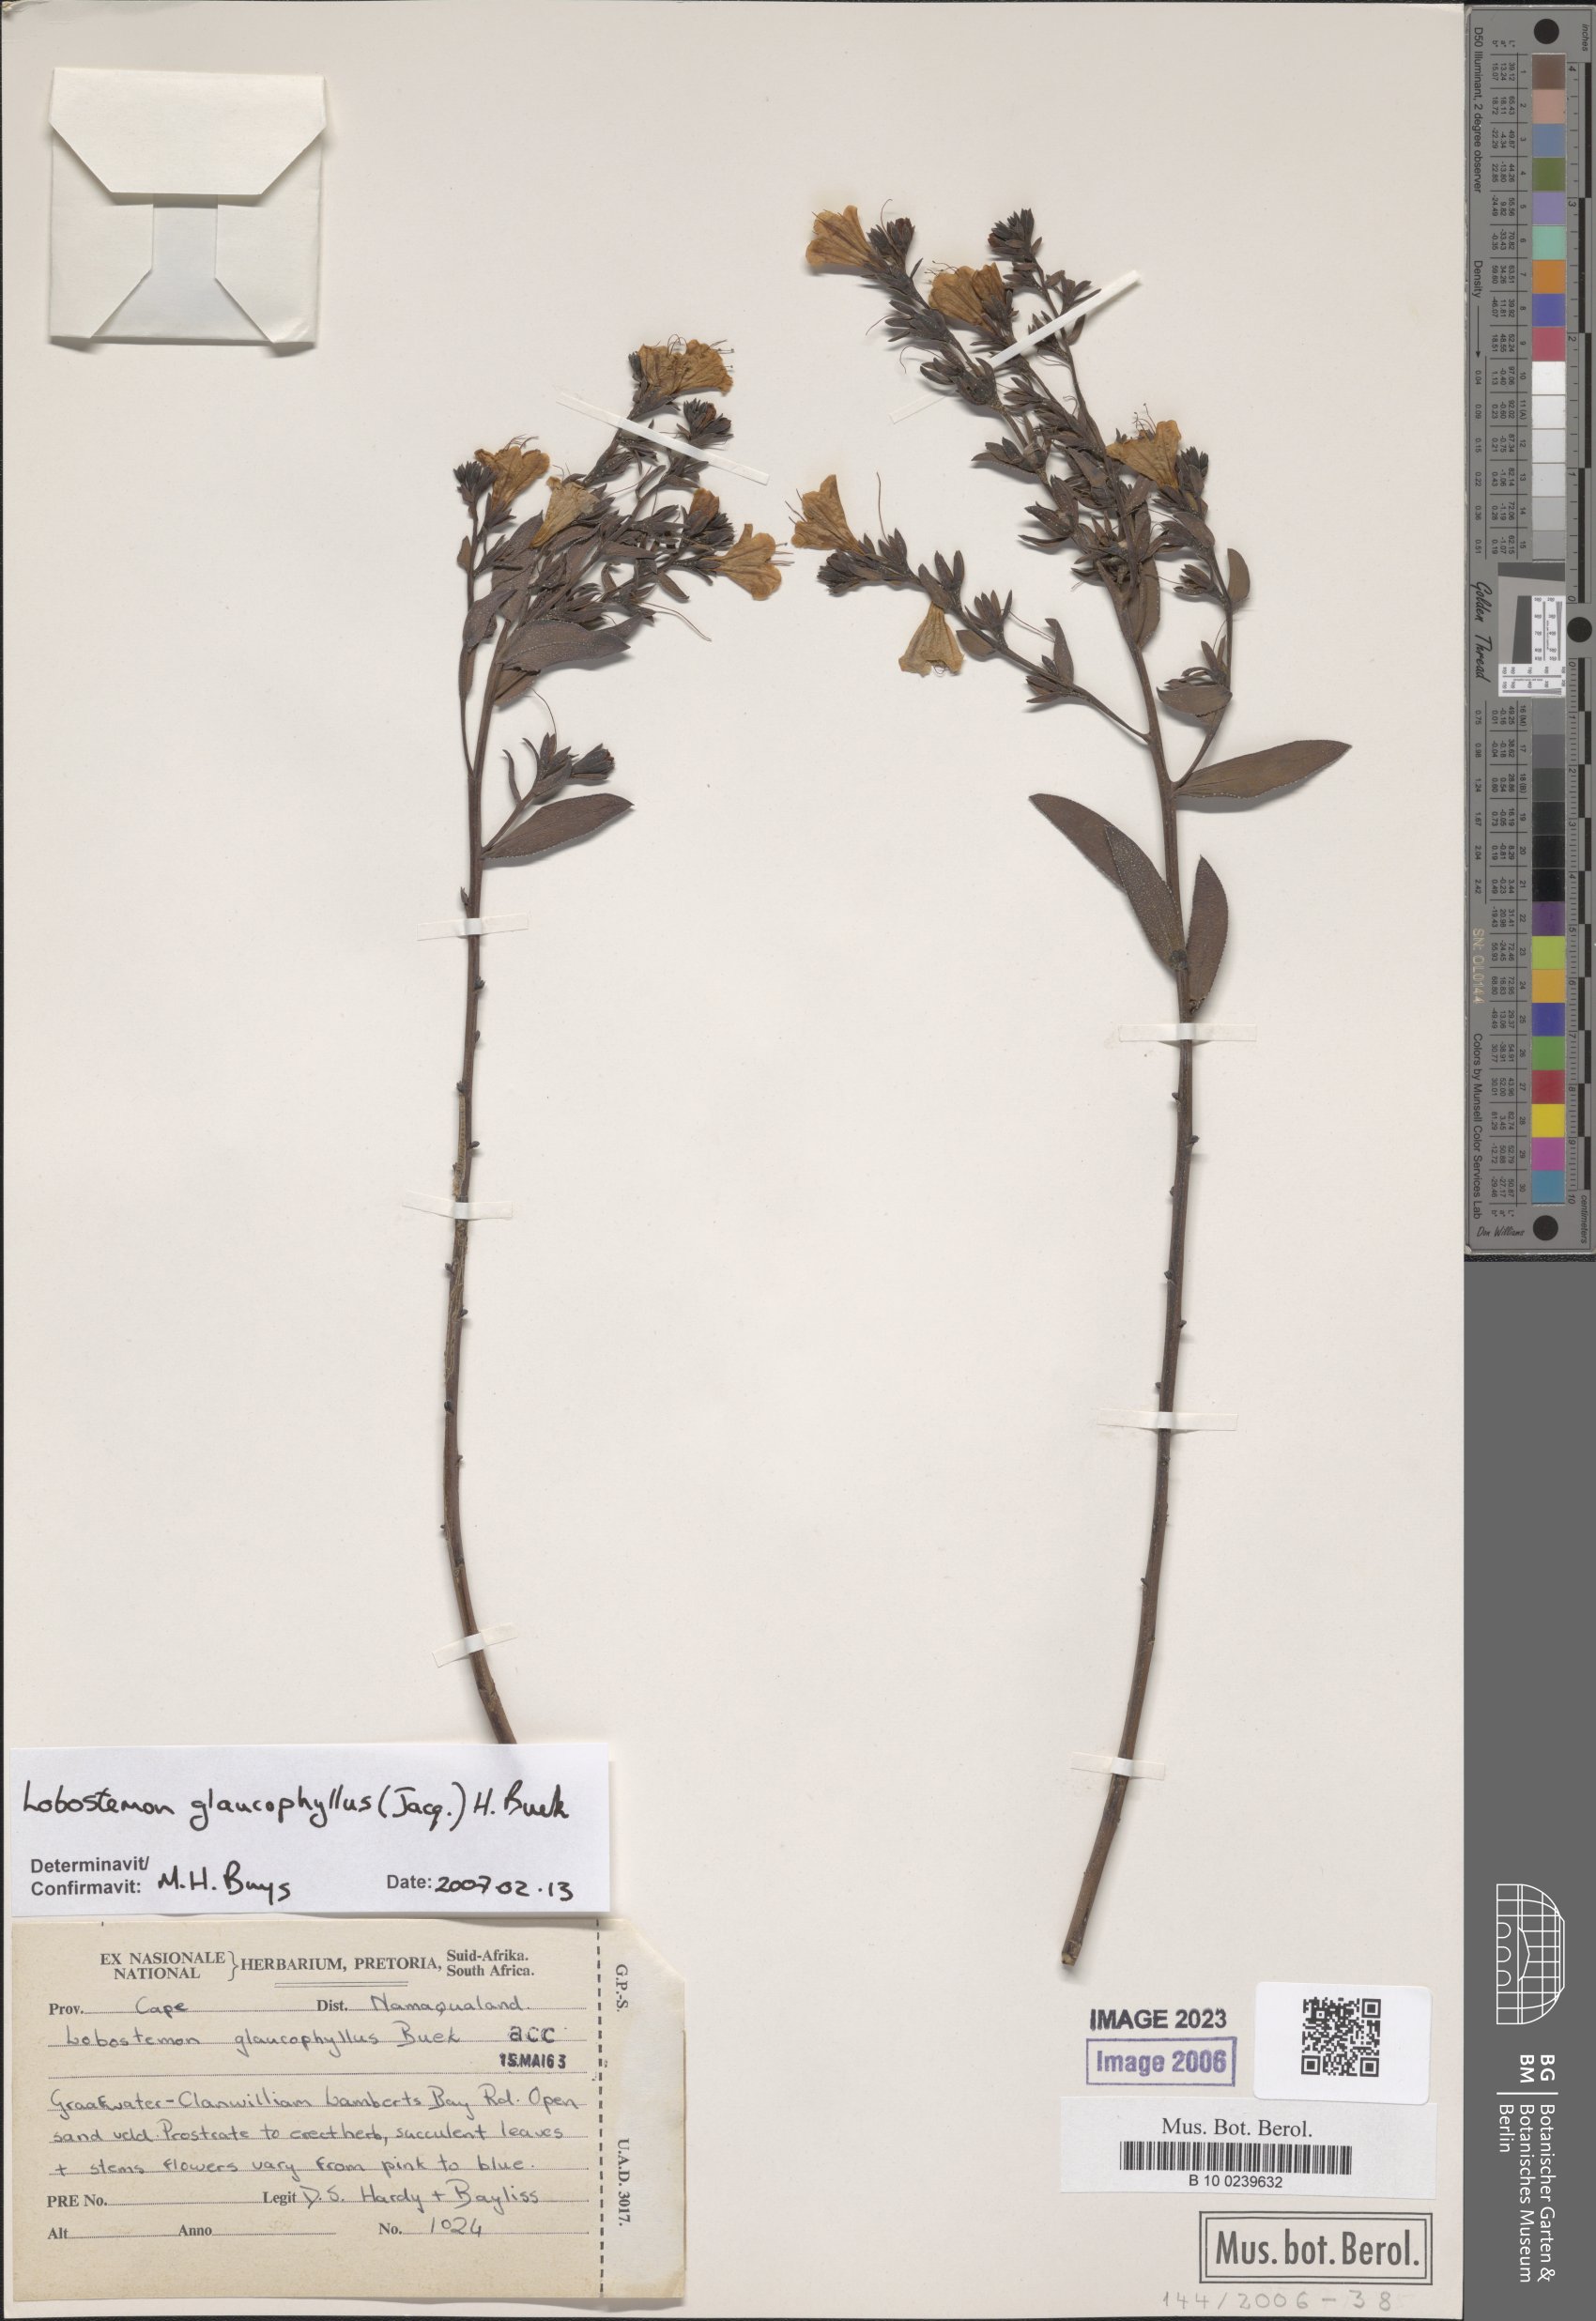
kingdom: Plantae
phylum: Tracheophyta
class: Magnoliopsida
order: Boraginales
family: Boraginaceae
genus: Lobostemon
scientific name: Lobostemon glaucophyllus
